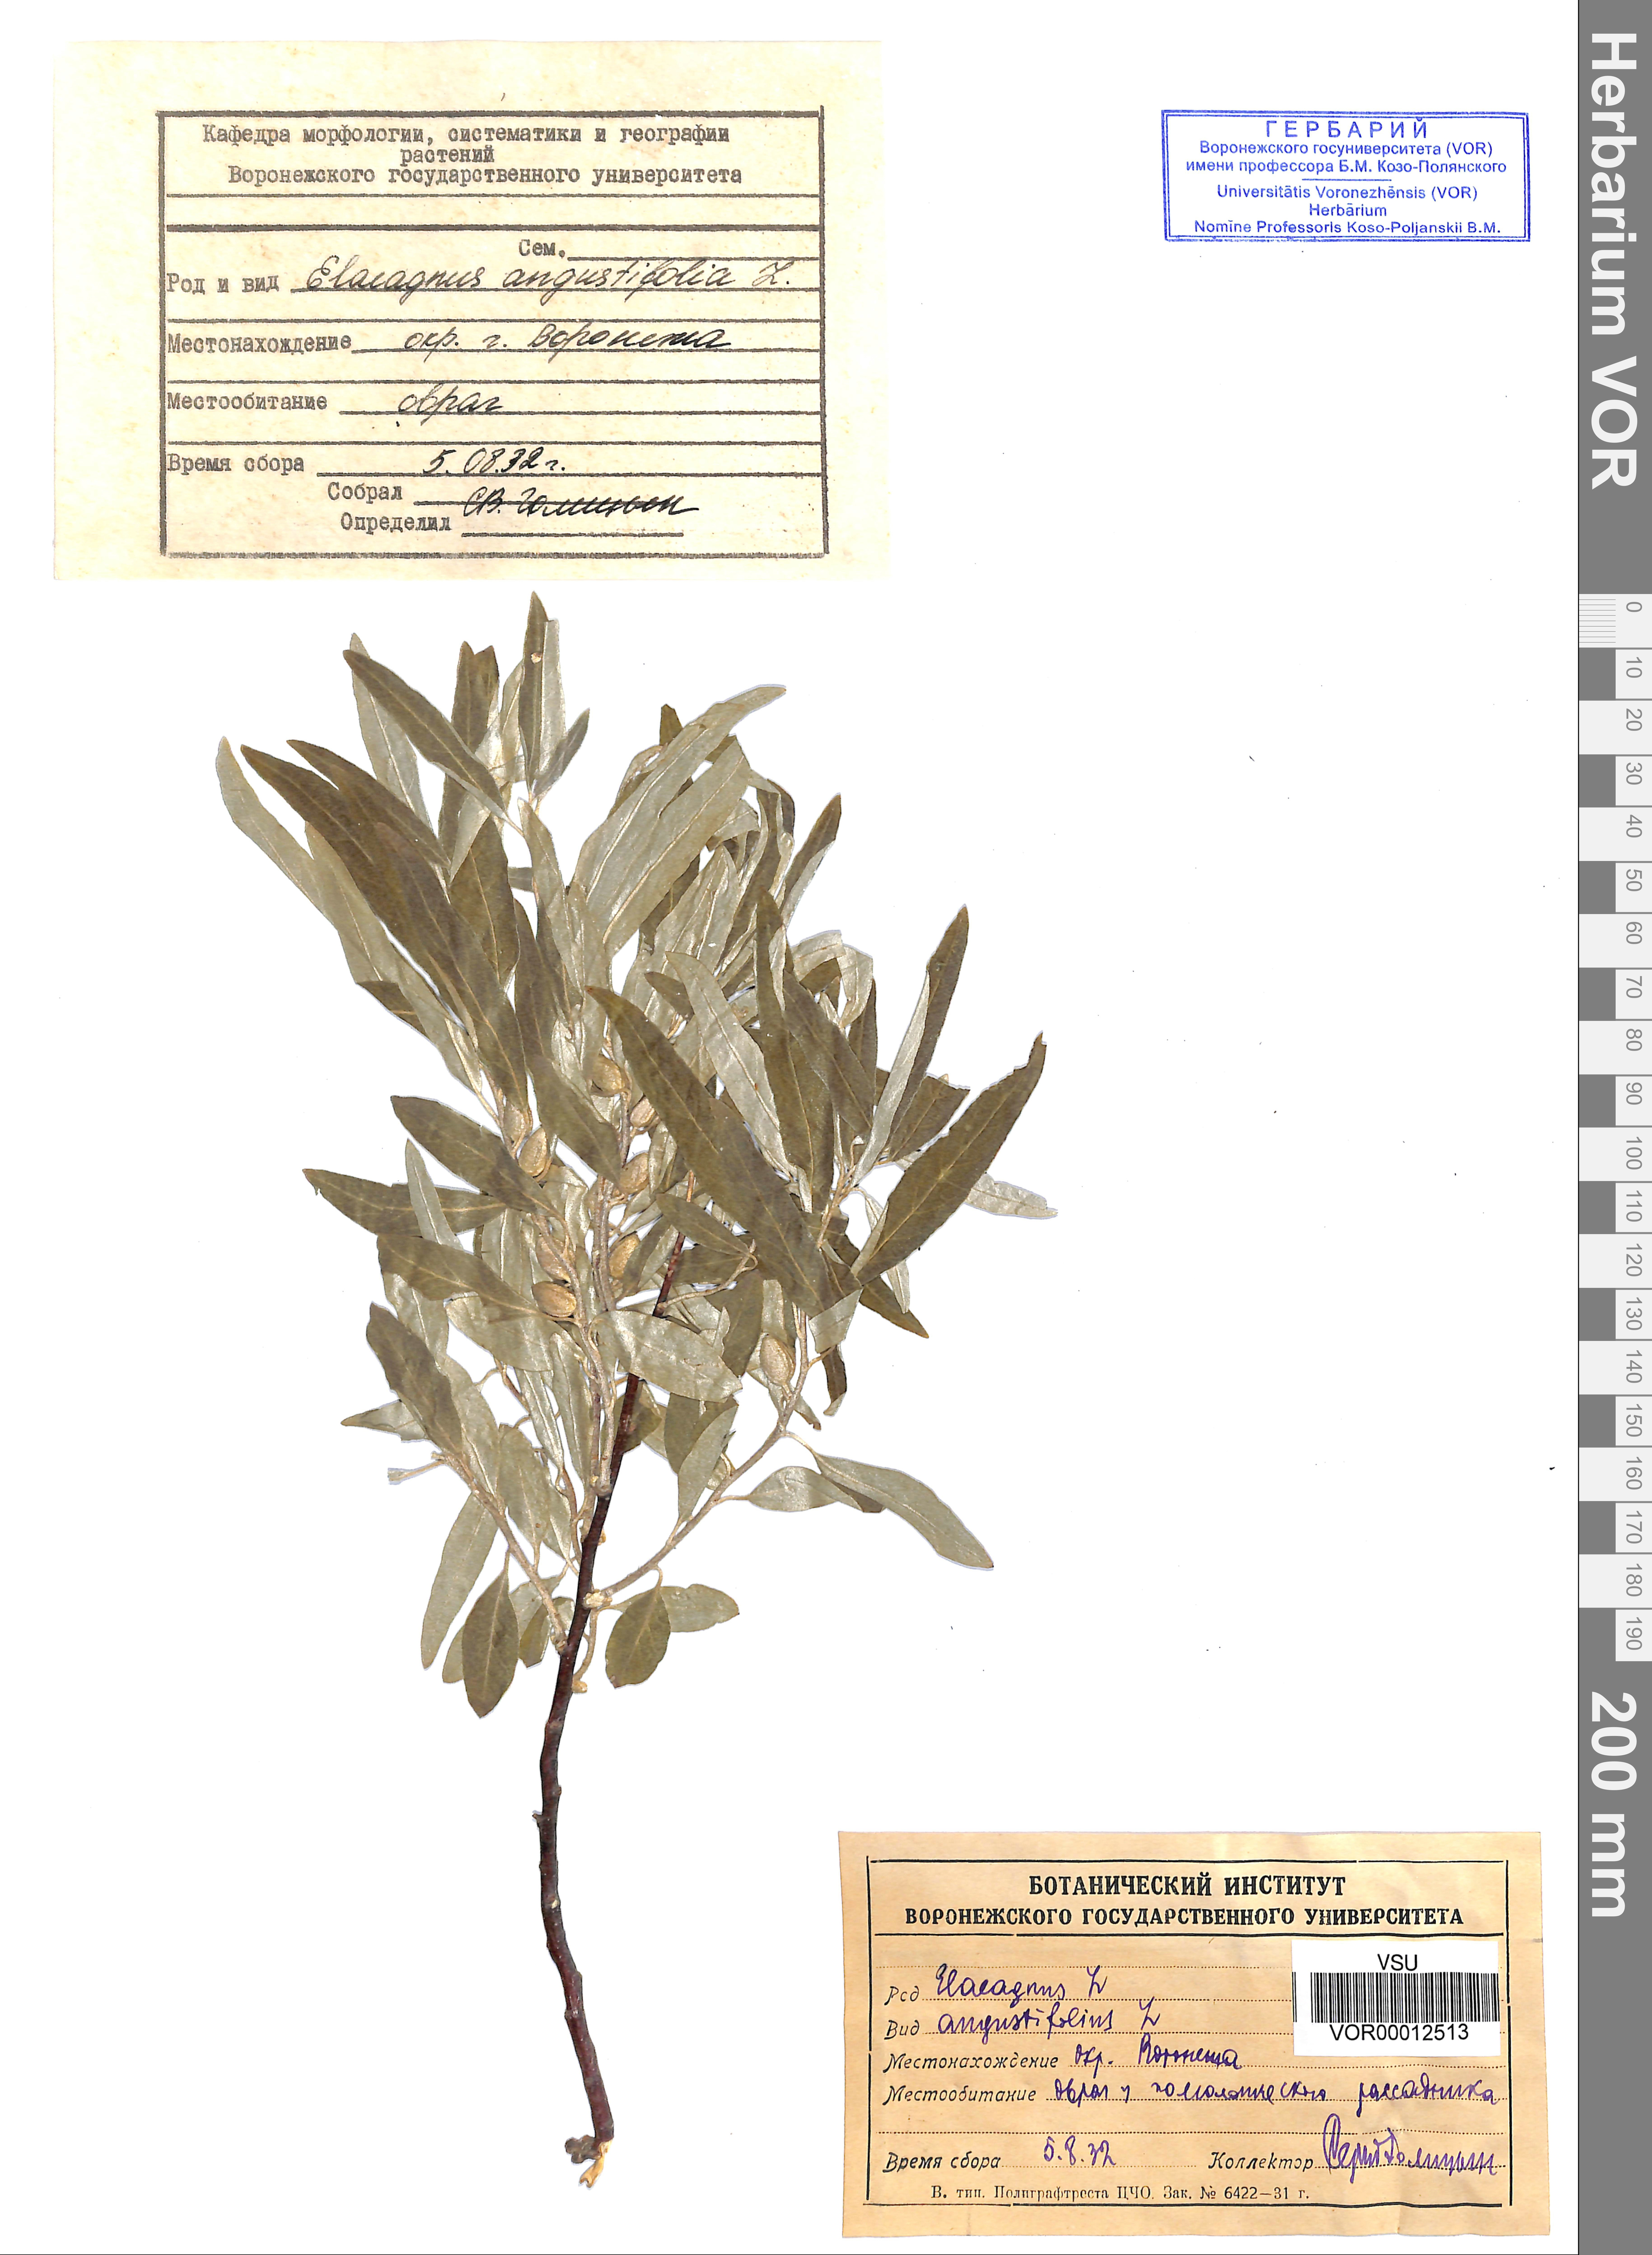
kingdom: Plantae
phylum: Tracheophyta
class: Magnoliopsida
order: Rosales
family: Elaeagnaceae
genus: Elaeagnus
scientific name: Elaeagnus angustifolia
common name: Russian olive
